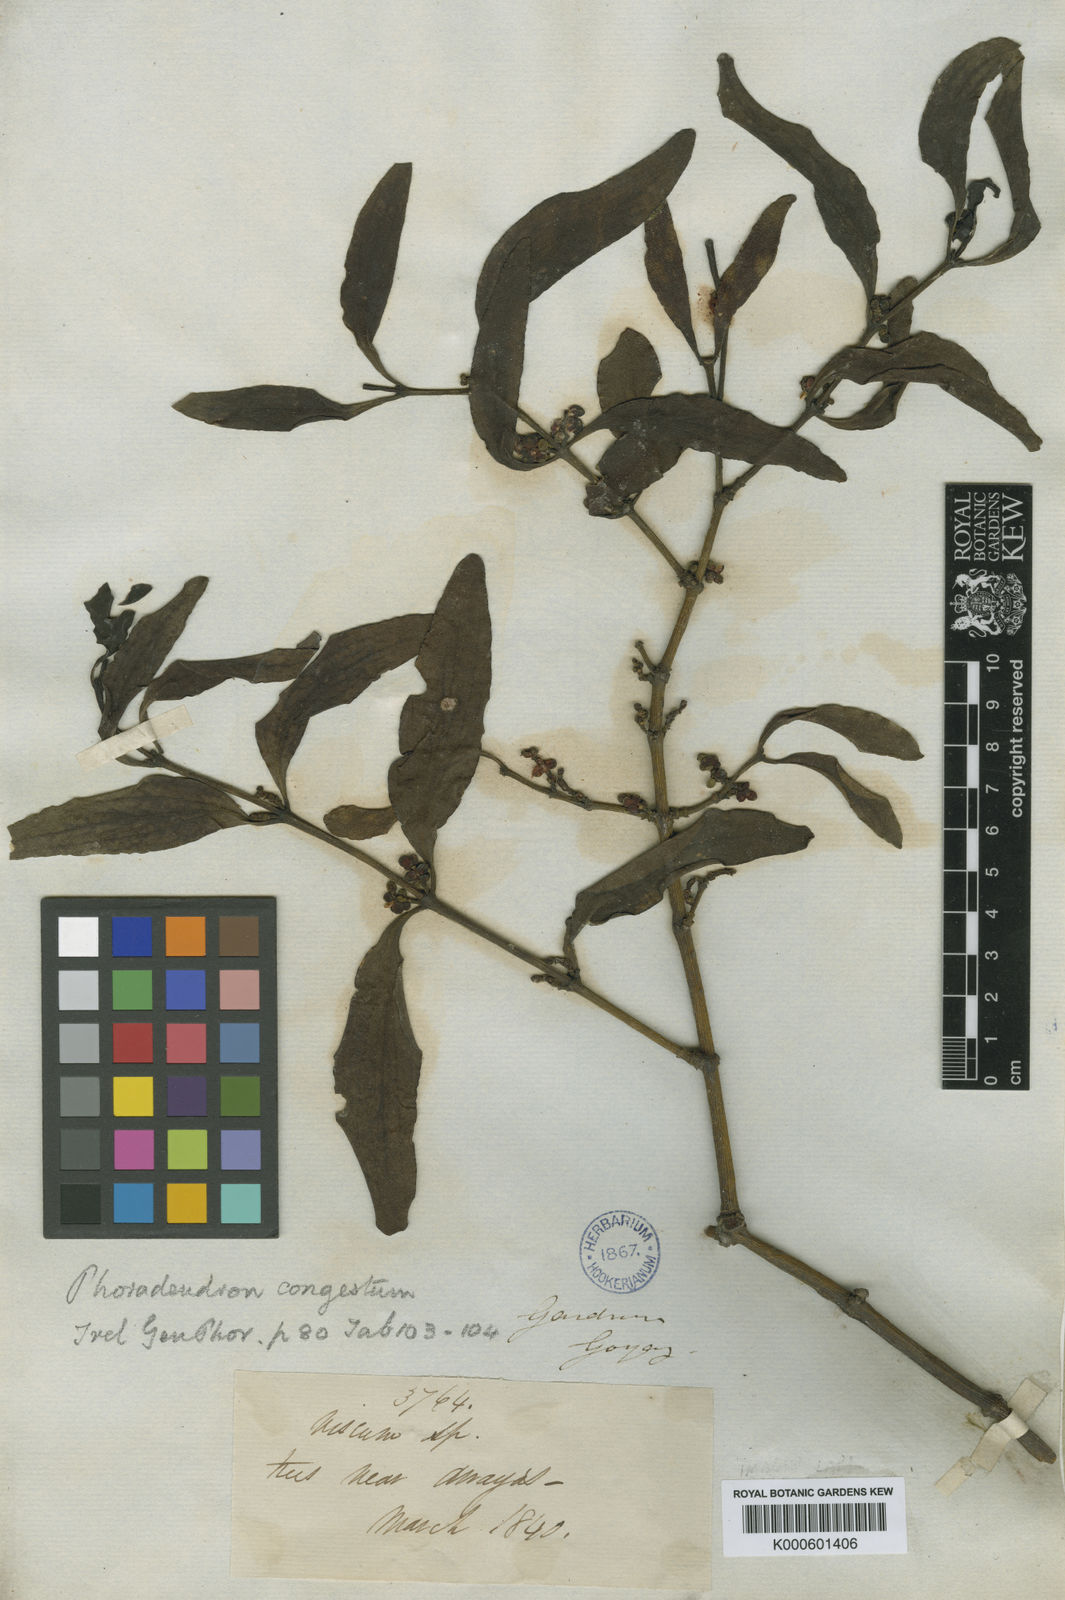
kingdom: Plantae
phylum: Tracheophyta
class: Magnoliopsida
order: Santalales
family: Viscaceae
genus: Phoradendron
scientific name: Phoradendron congestum
